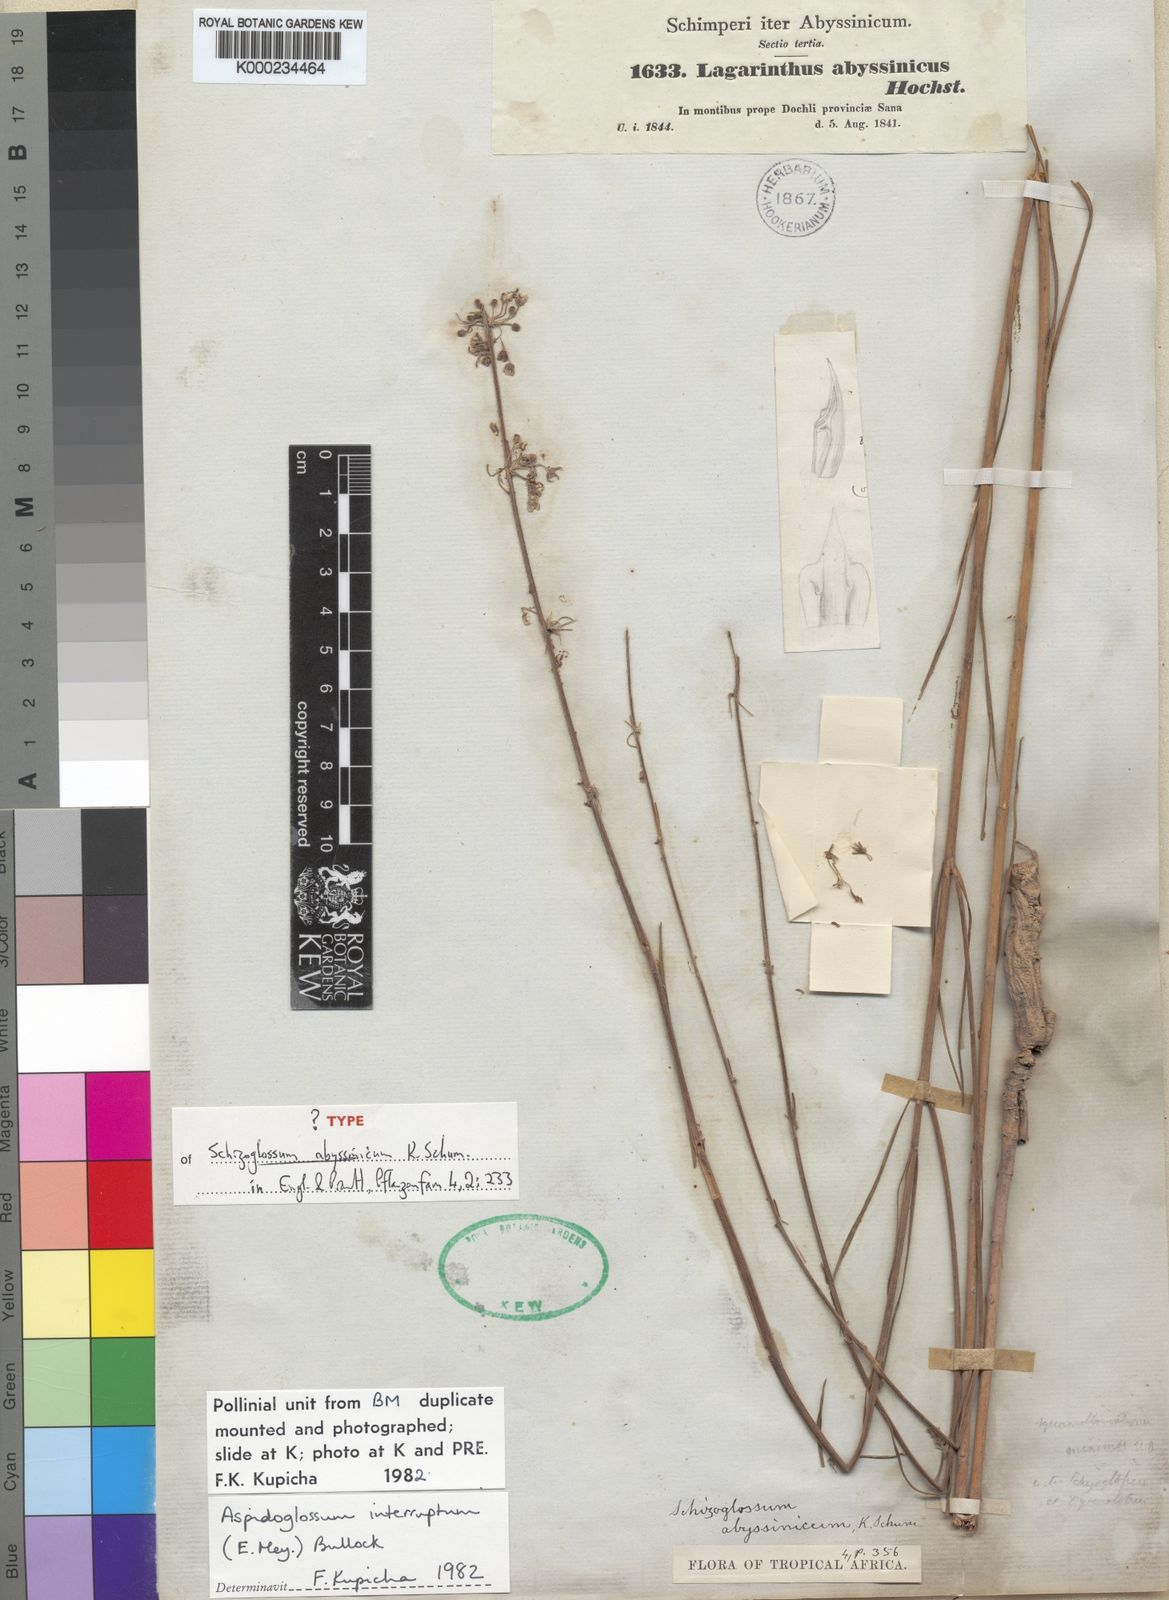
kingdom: Plantae
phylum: Tracheophyta
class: Magnoliopsida
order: Gentianales
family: Apocynaceae
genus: Aspidoglossum
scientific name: Aspidoglossum interruptum
